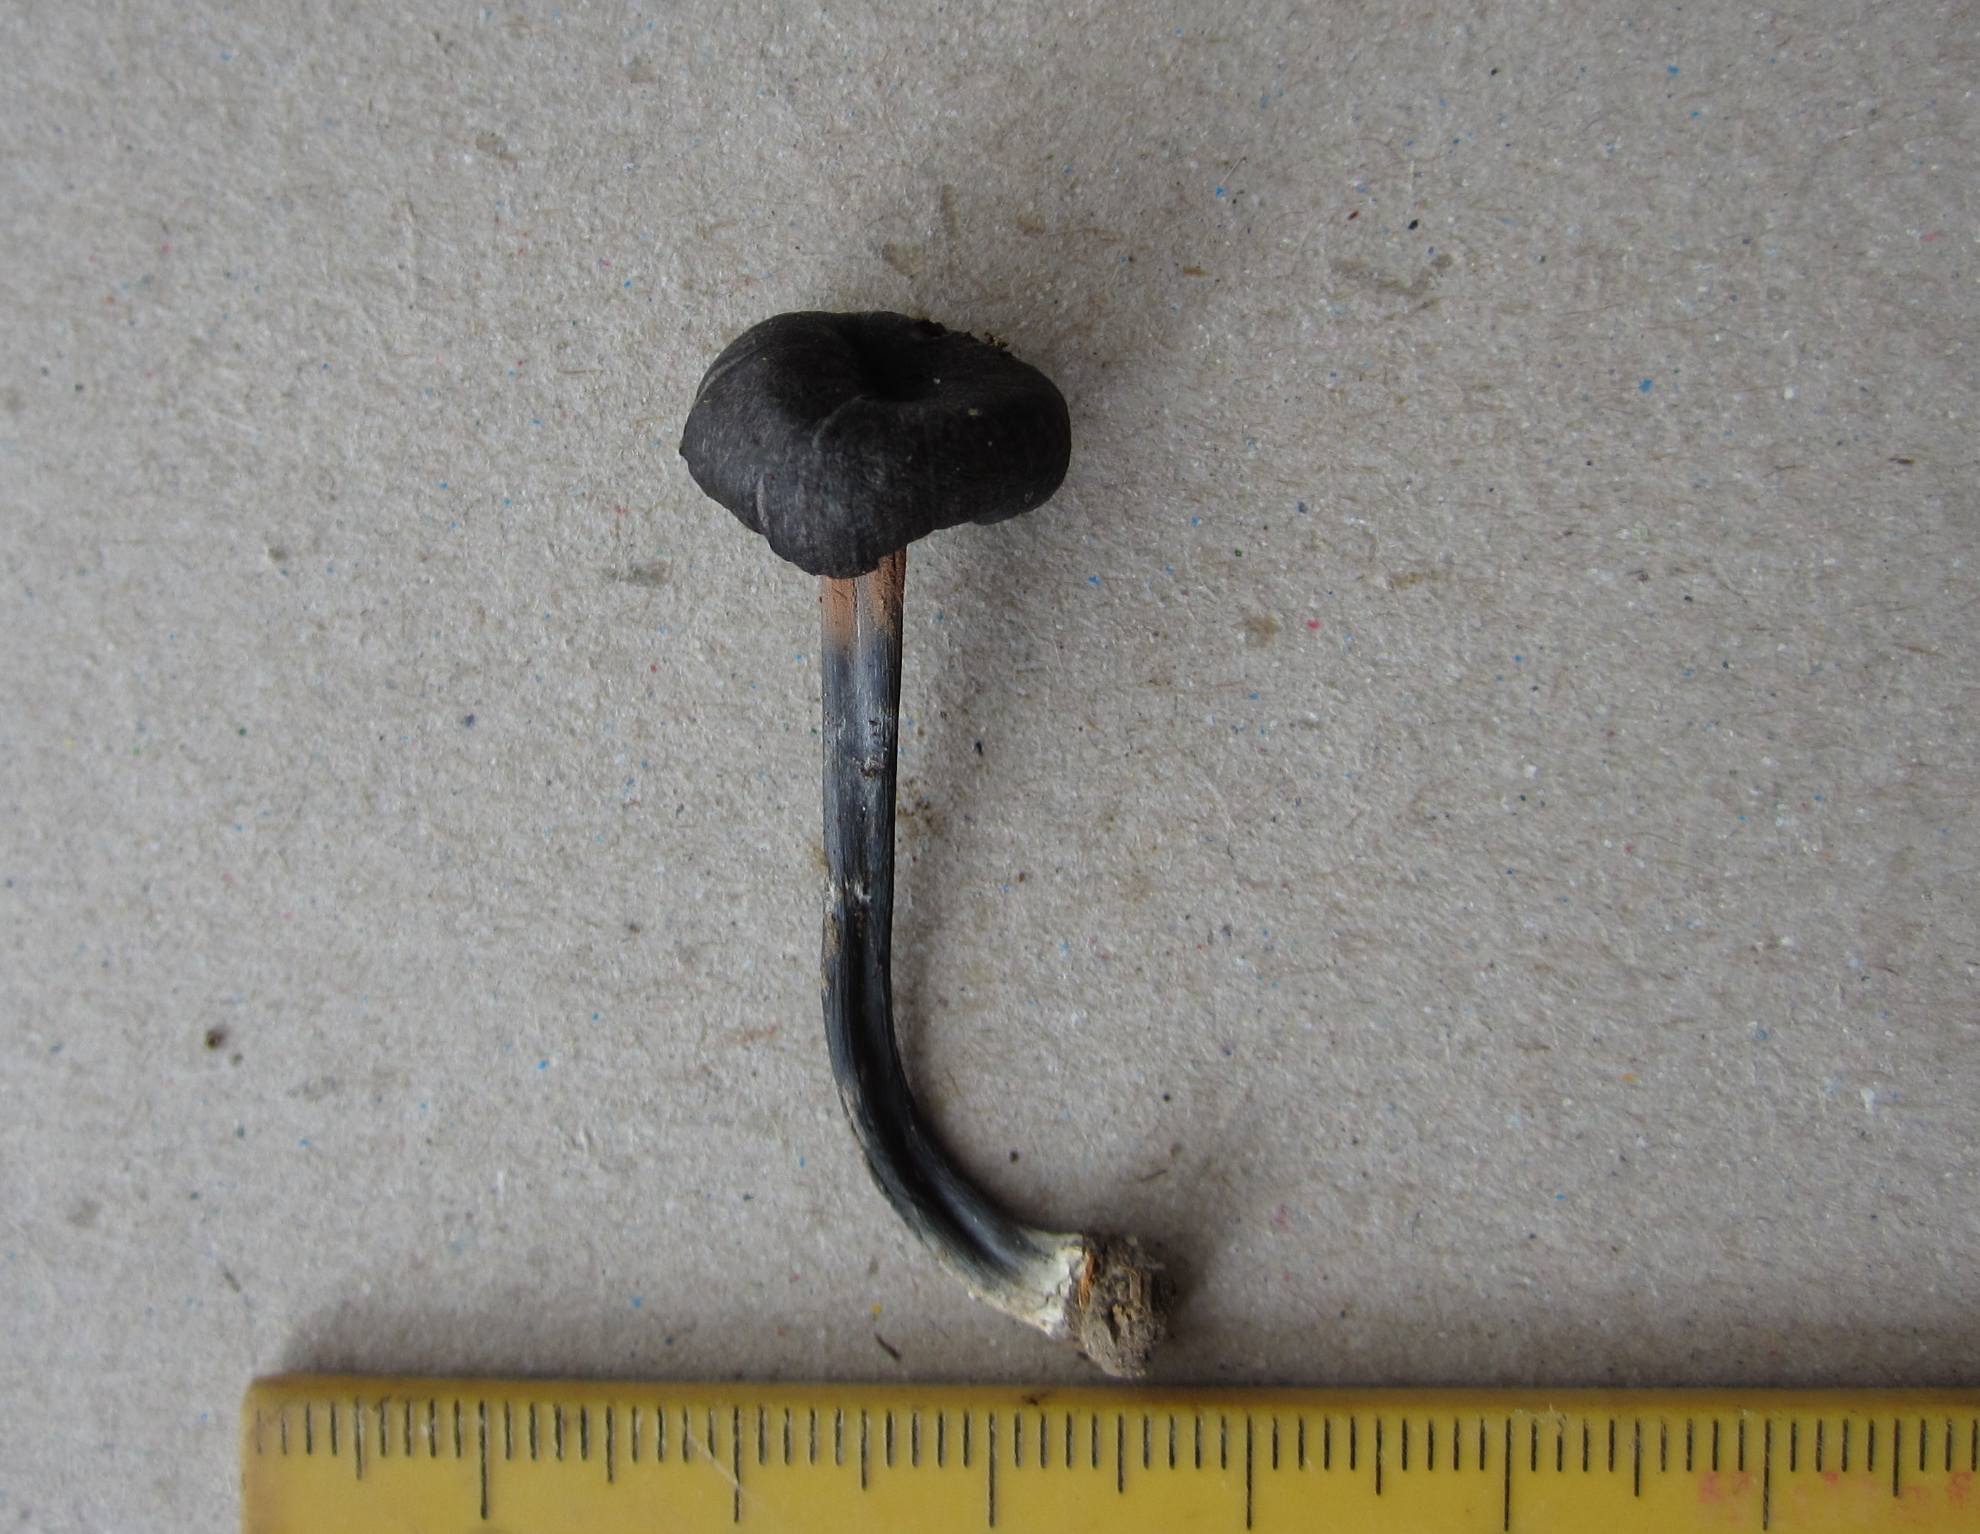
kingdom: Fungi
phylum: Basidiomycota
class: Agaricomycetes
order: Agaricales
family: Entolomataceae
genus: Entoloma
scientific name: Entoloma porphyrogriseum
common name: porfyrgrå rødblad
